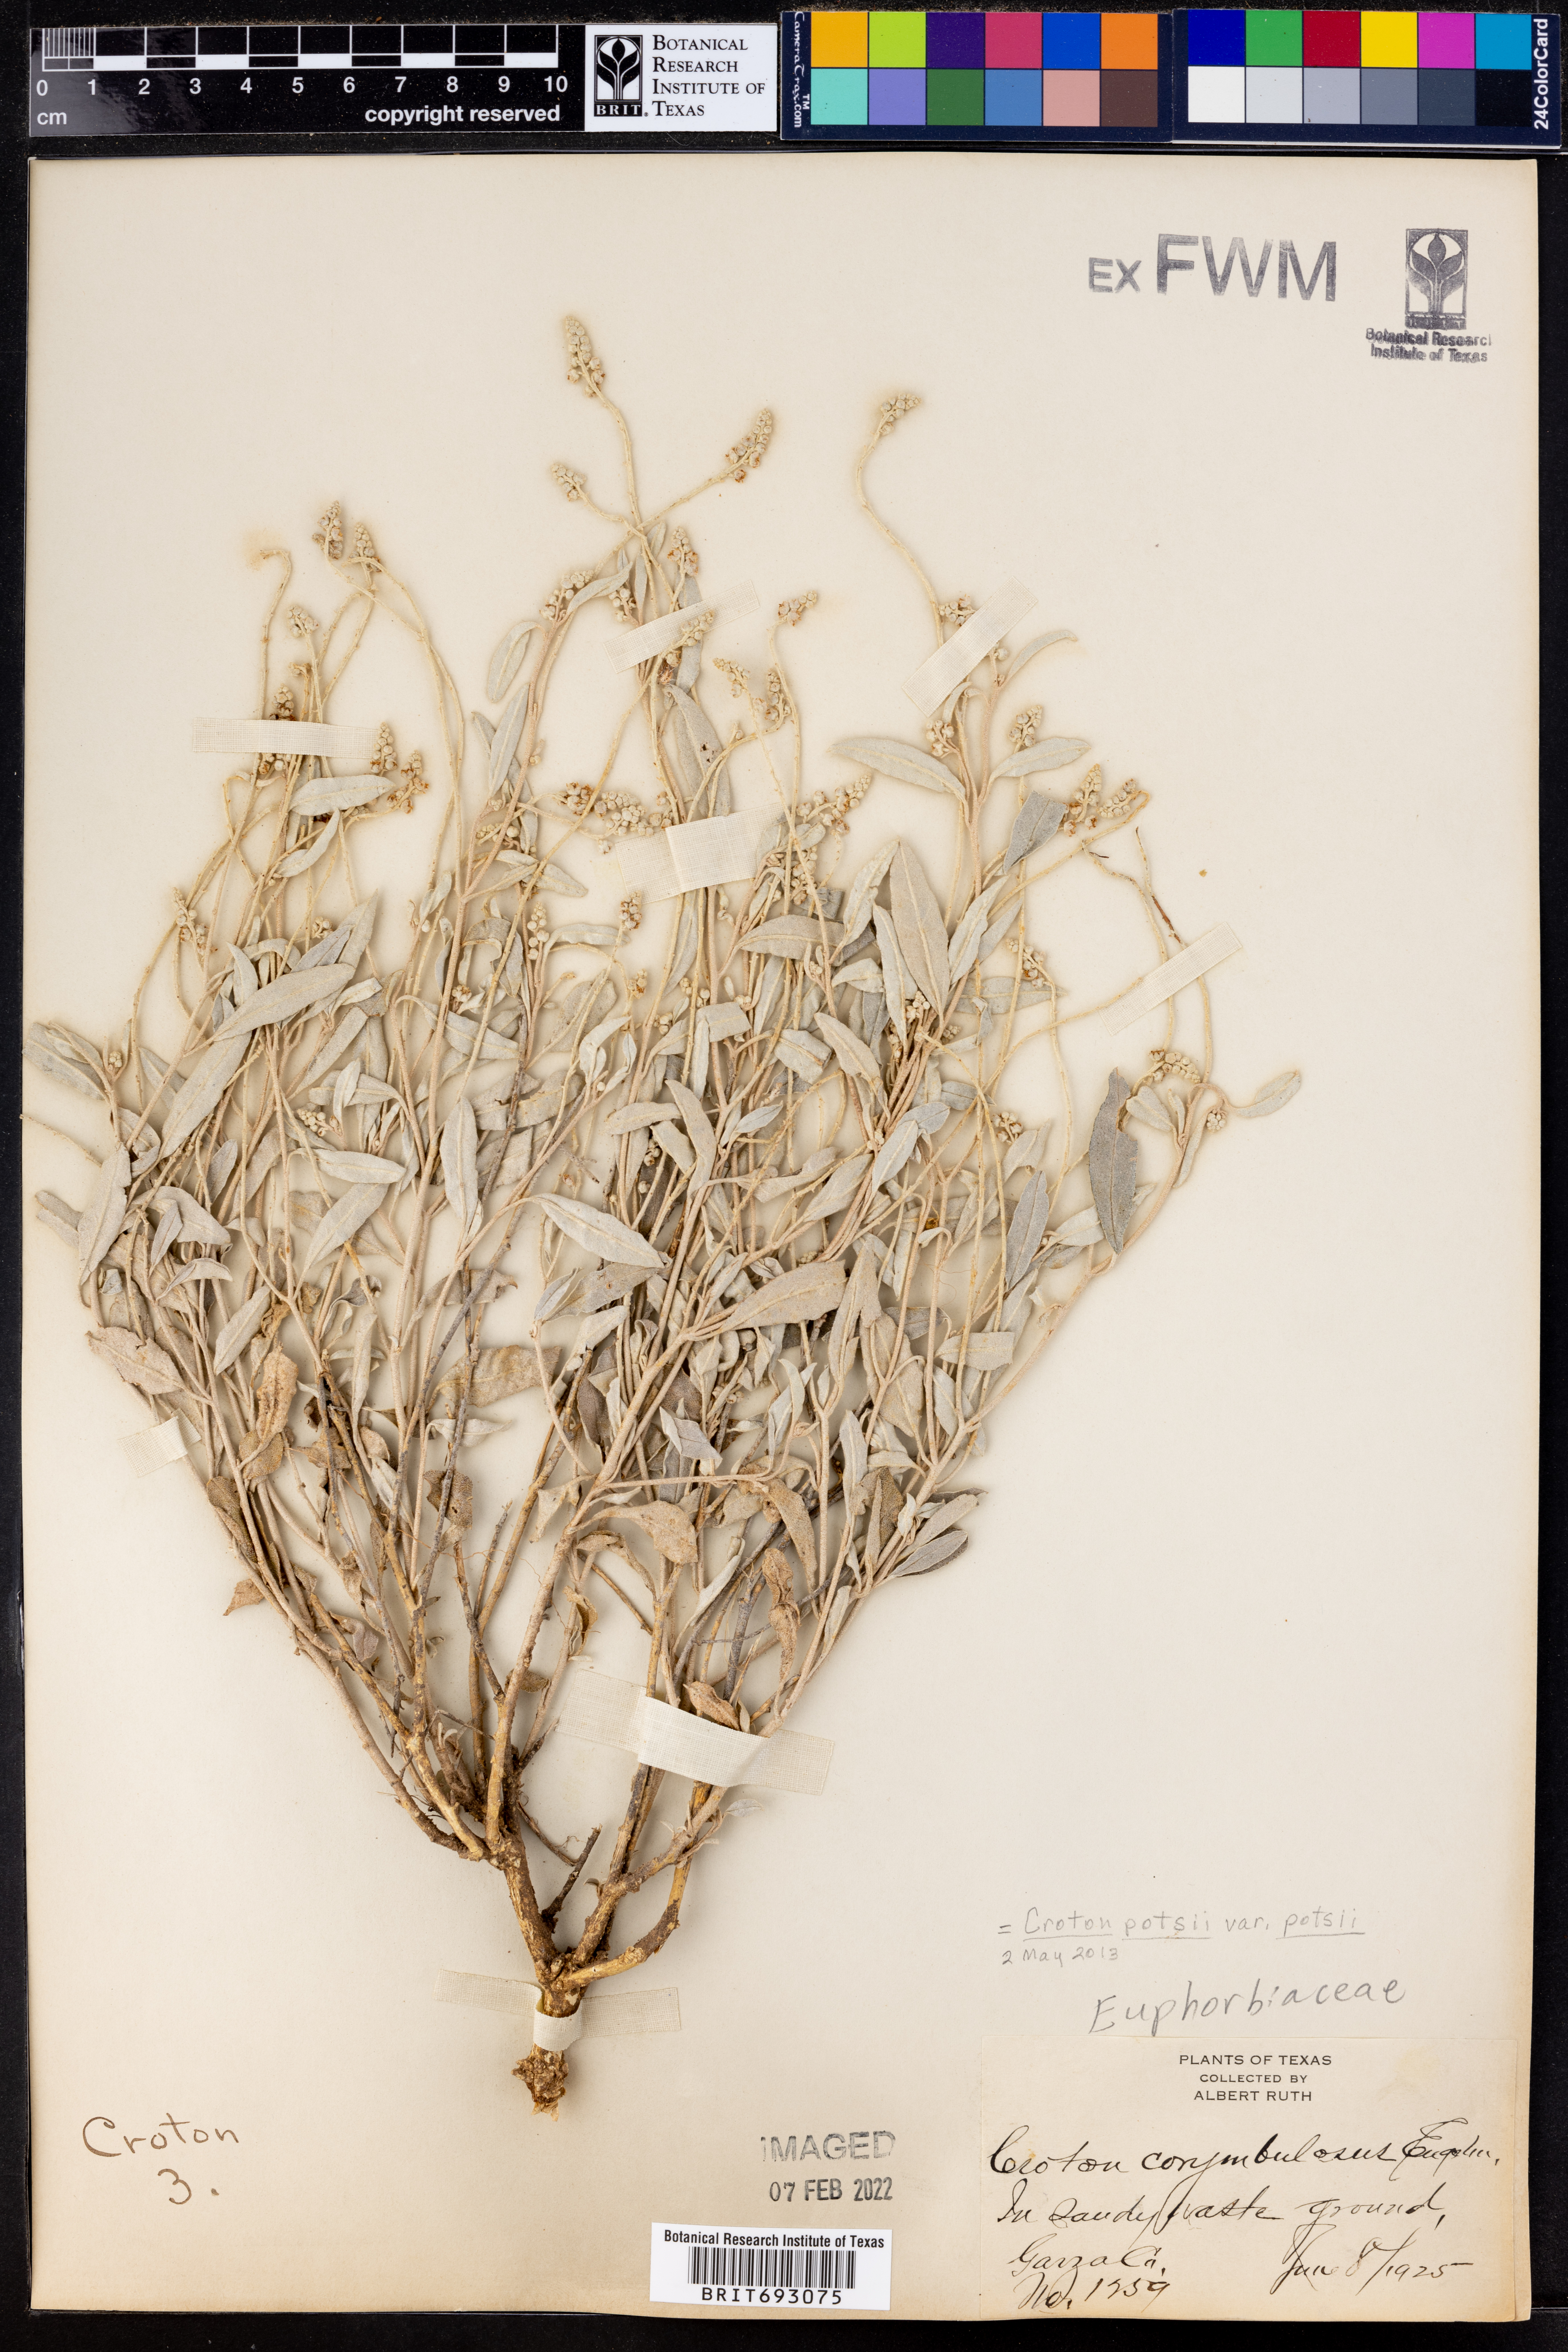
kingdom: Plantae
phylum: Tracheophyta
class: Magnoliopsida
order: Malpighiales
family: Euphorbiaceae
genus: Croton
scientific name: Croton pottsii
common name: Leatherweed
